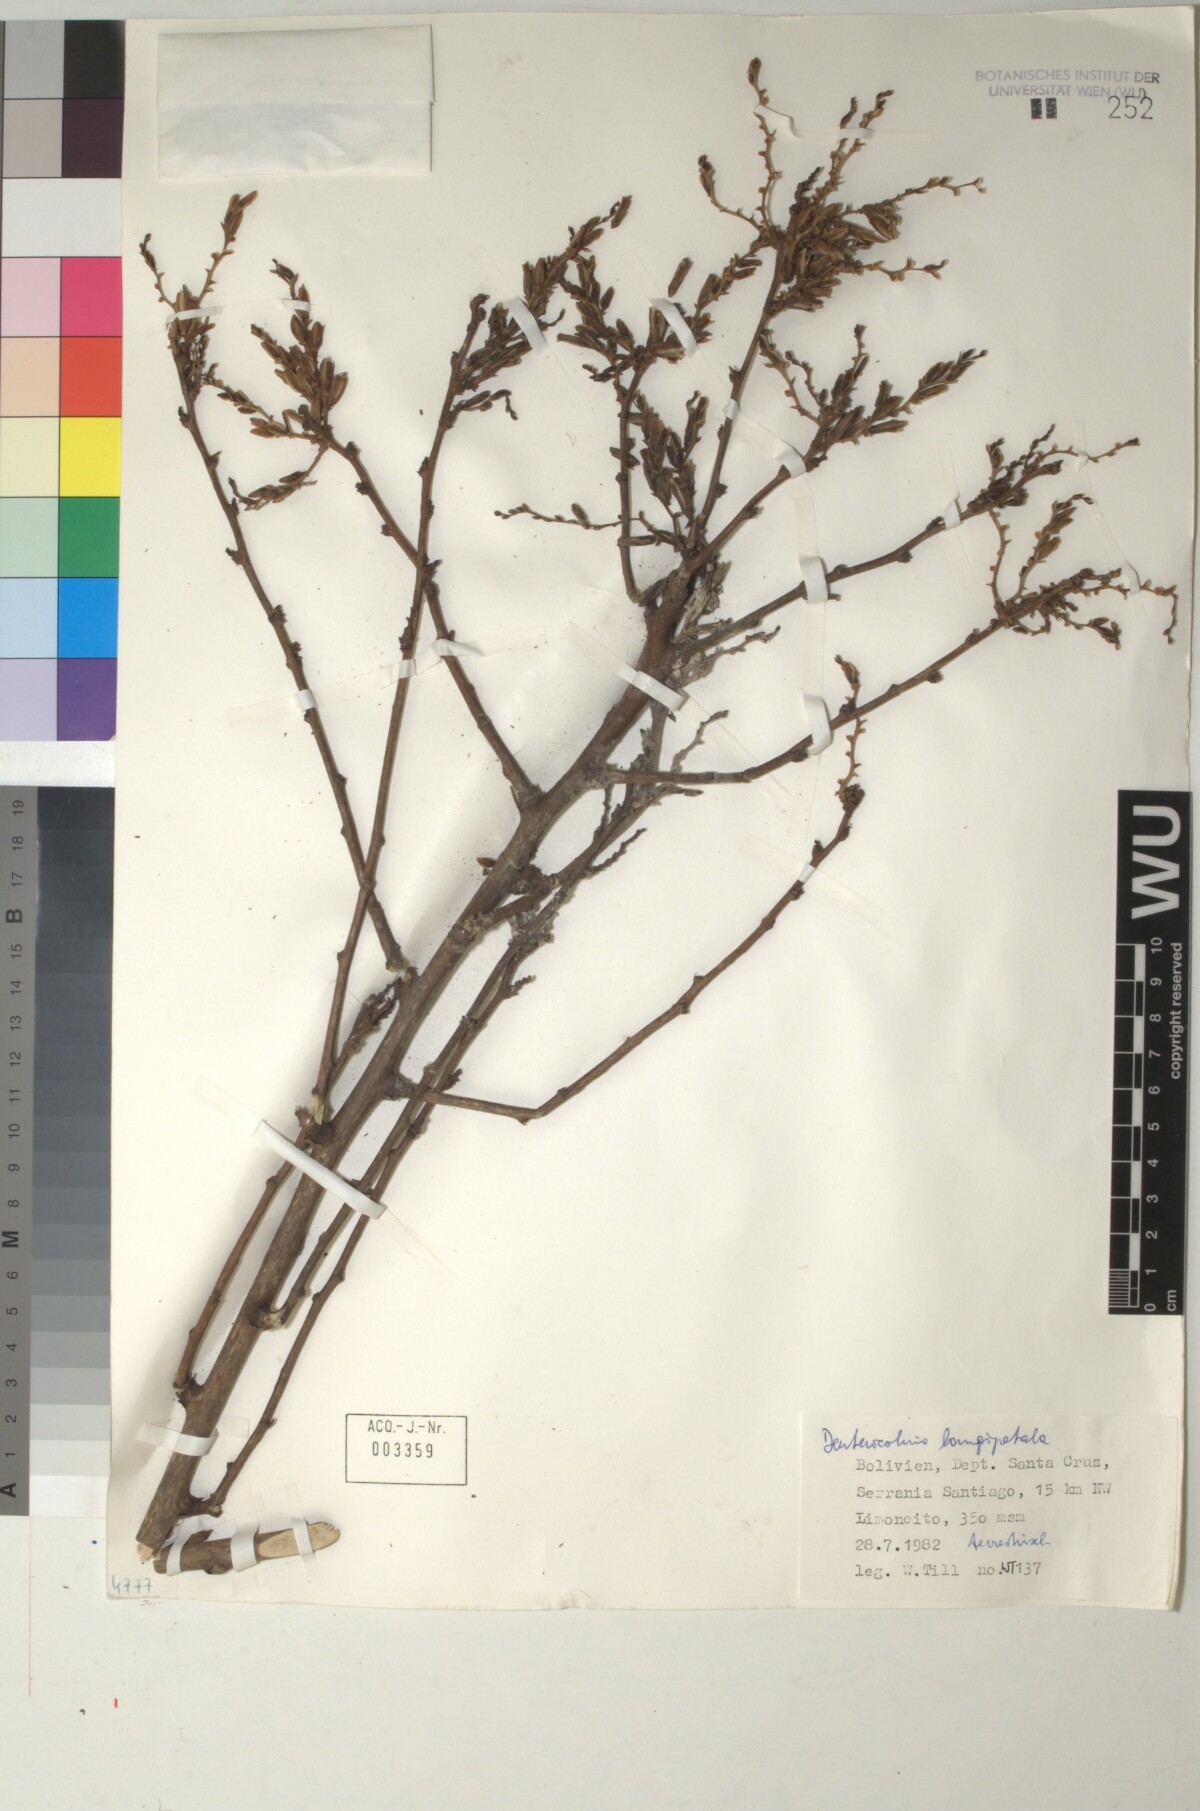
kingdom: Plantae
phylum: Tracheophyta
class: Liliopsida
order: Poales
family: Bromeliaceae
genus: Deuterocohnia
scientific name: Deuterocohnia longipetala
